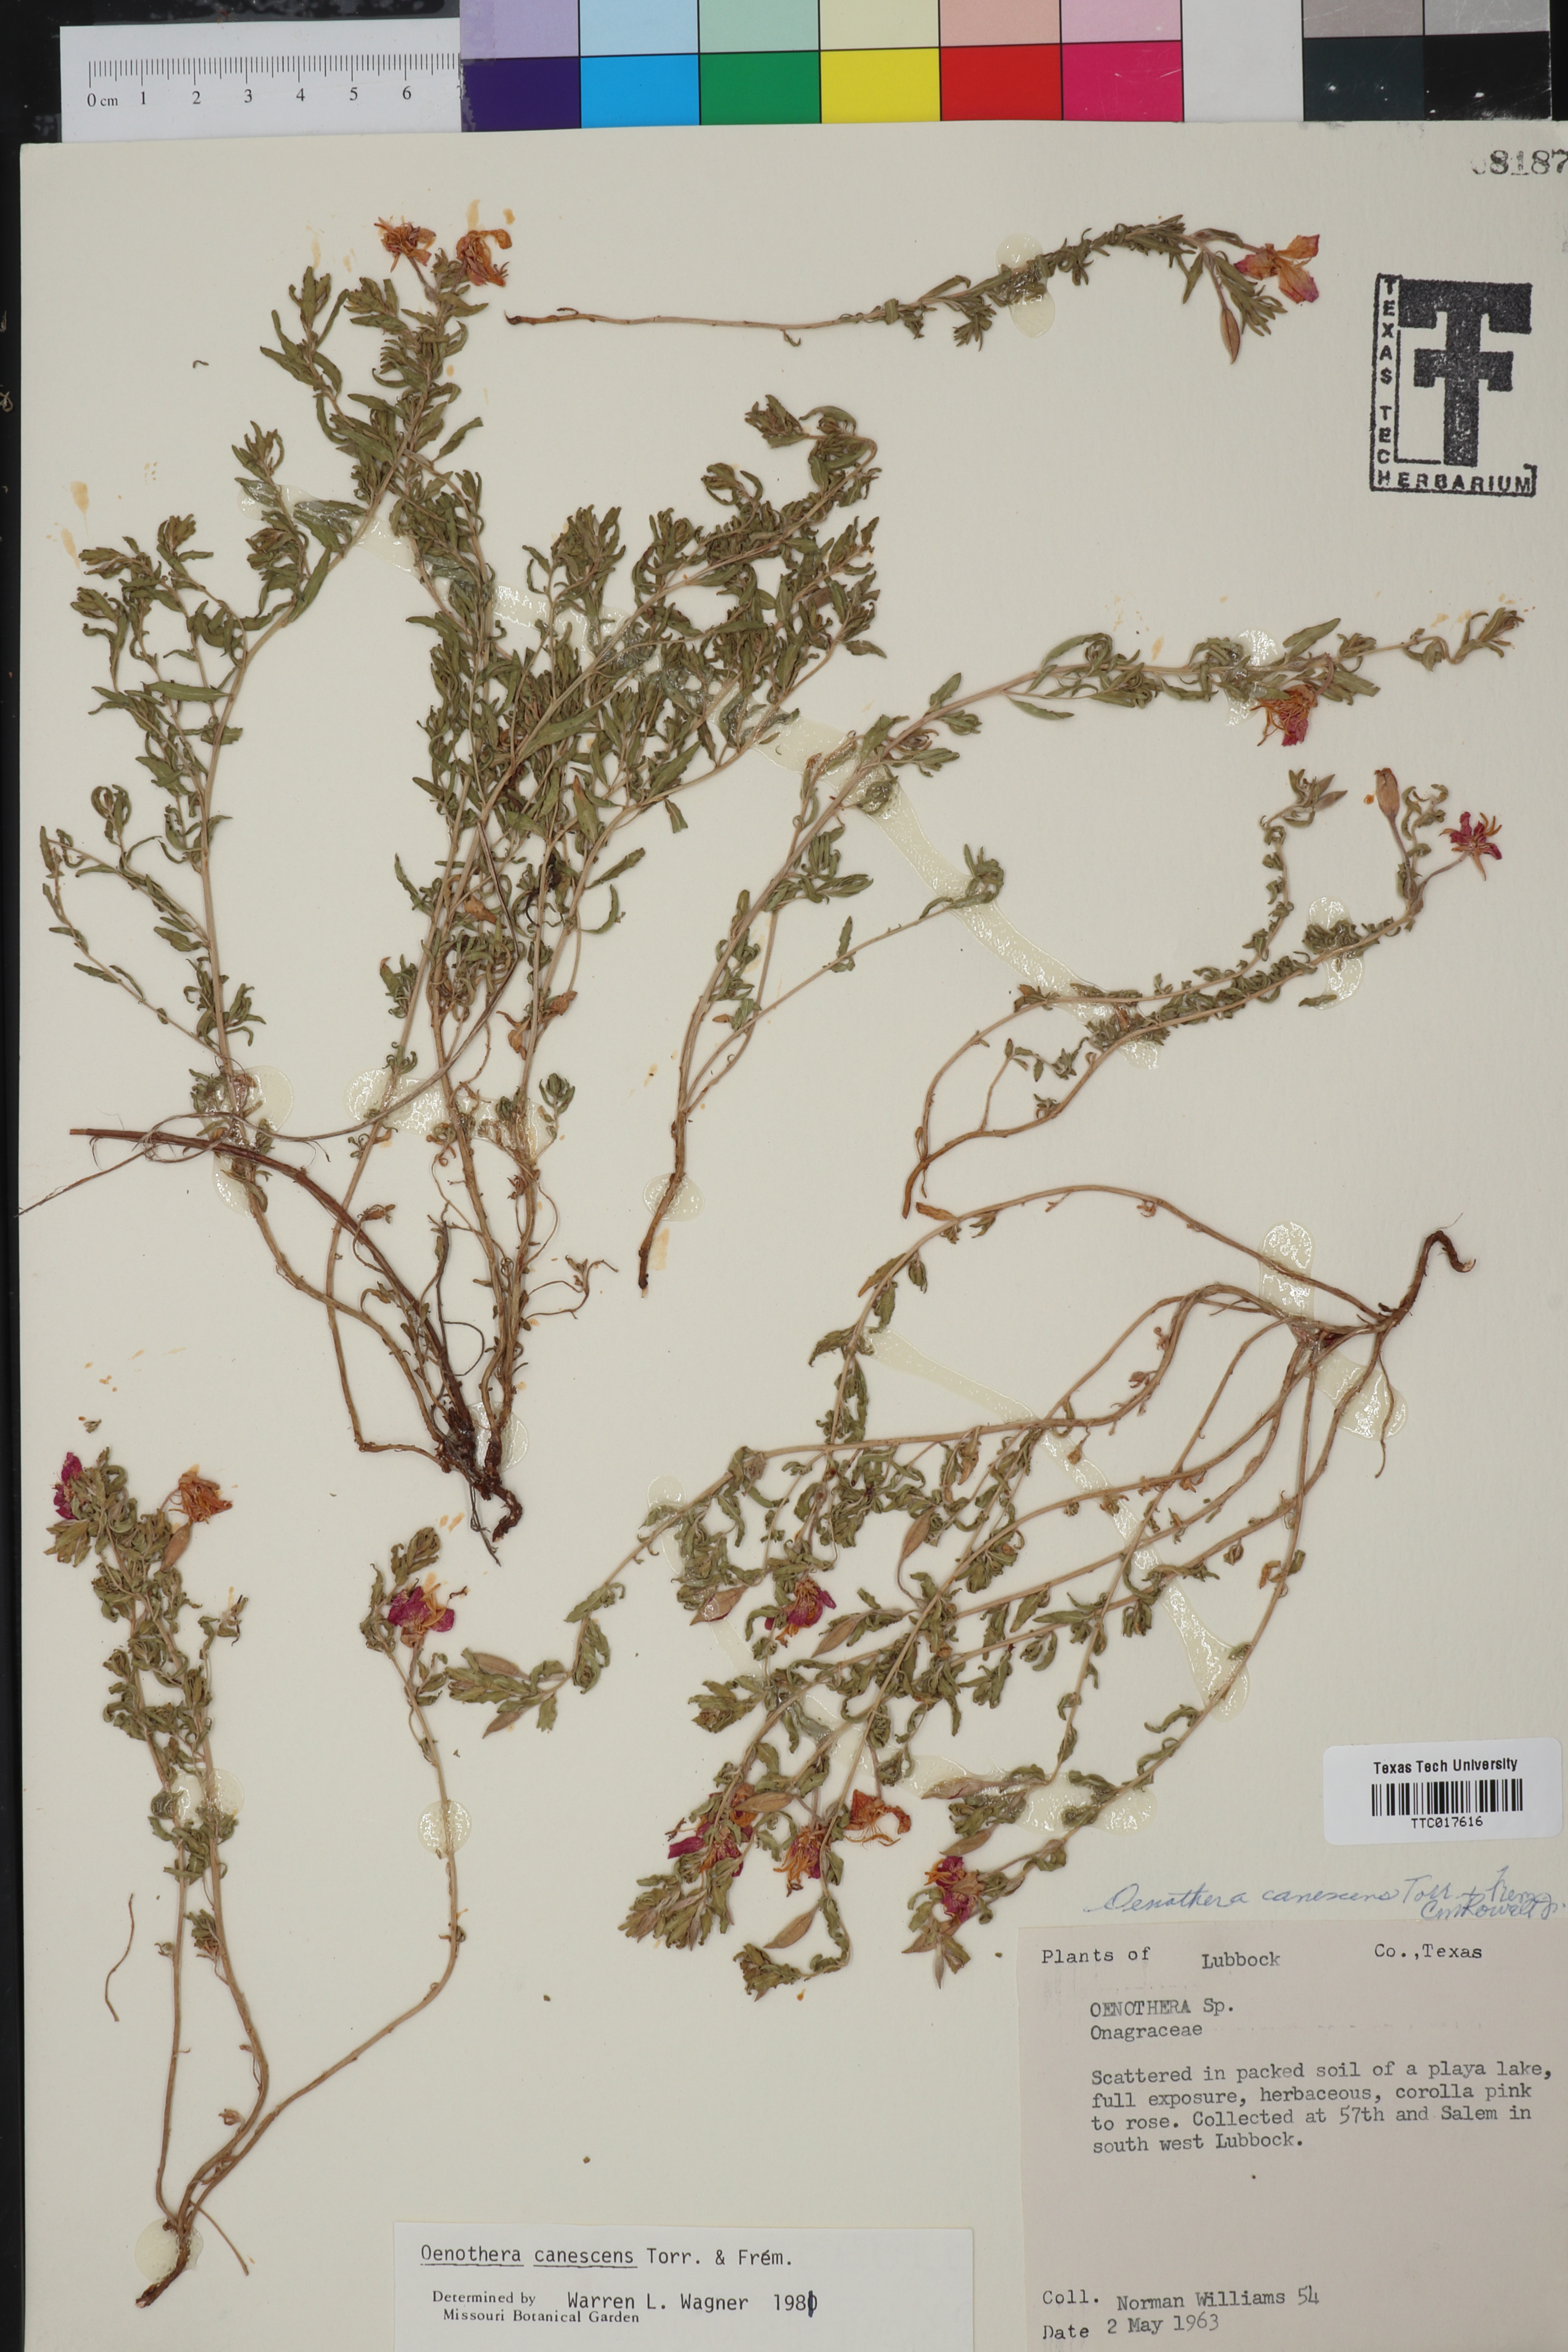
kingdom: Plantae
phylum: Tracheophyta
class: Magnoliopsida
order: Myrtales
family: Onagraceae
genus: Oenothera
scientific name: Oenothera canescens
